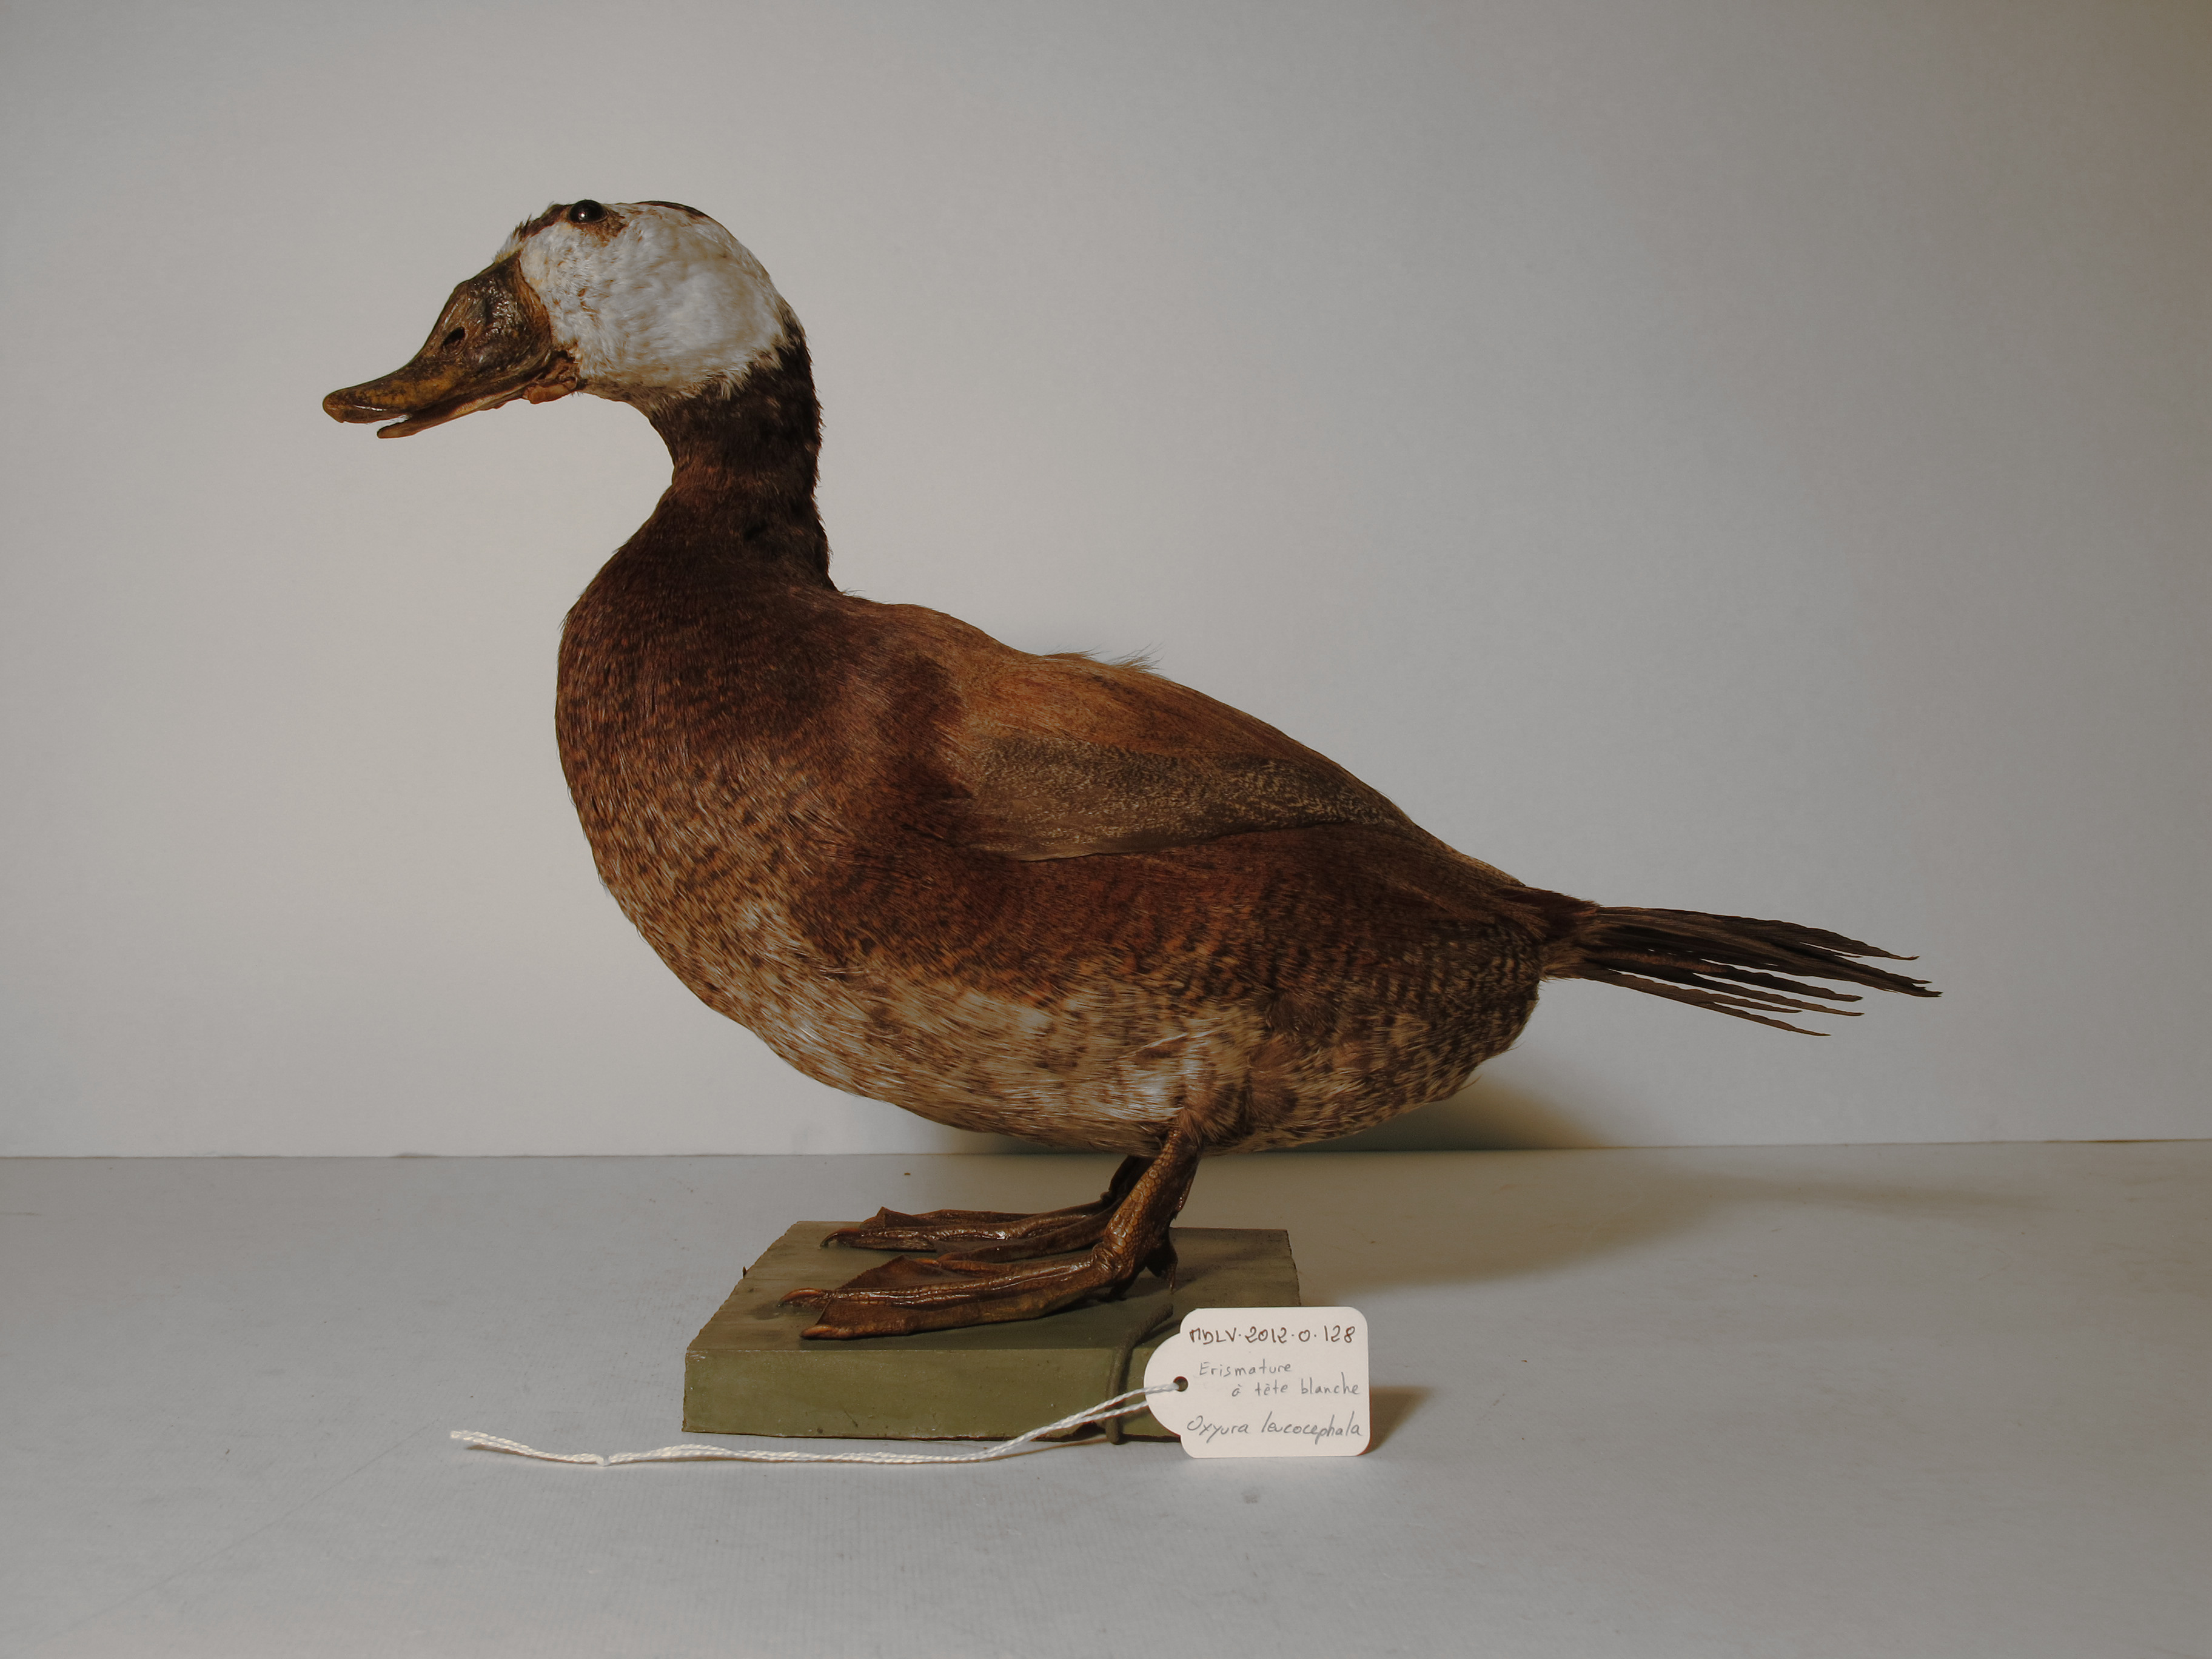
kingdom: Animalia
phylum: Chordata
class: Aves
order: Anseriformes
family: Anatidae
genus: Oxyura
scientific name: Oxyura leucocephala
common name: White-headed Duck
